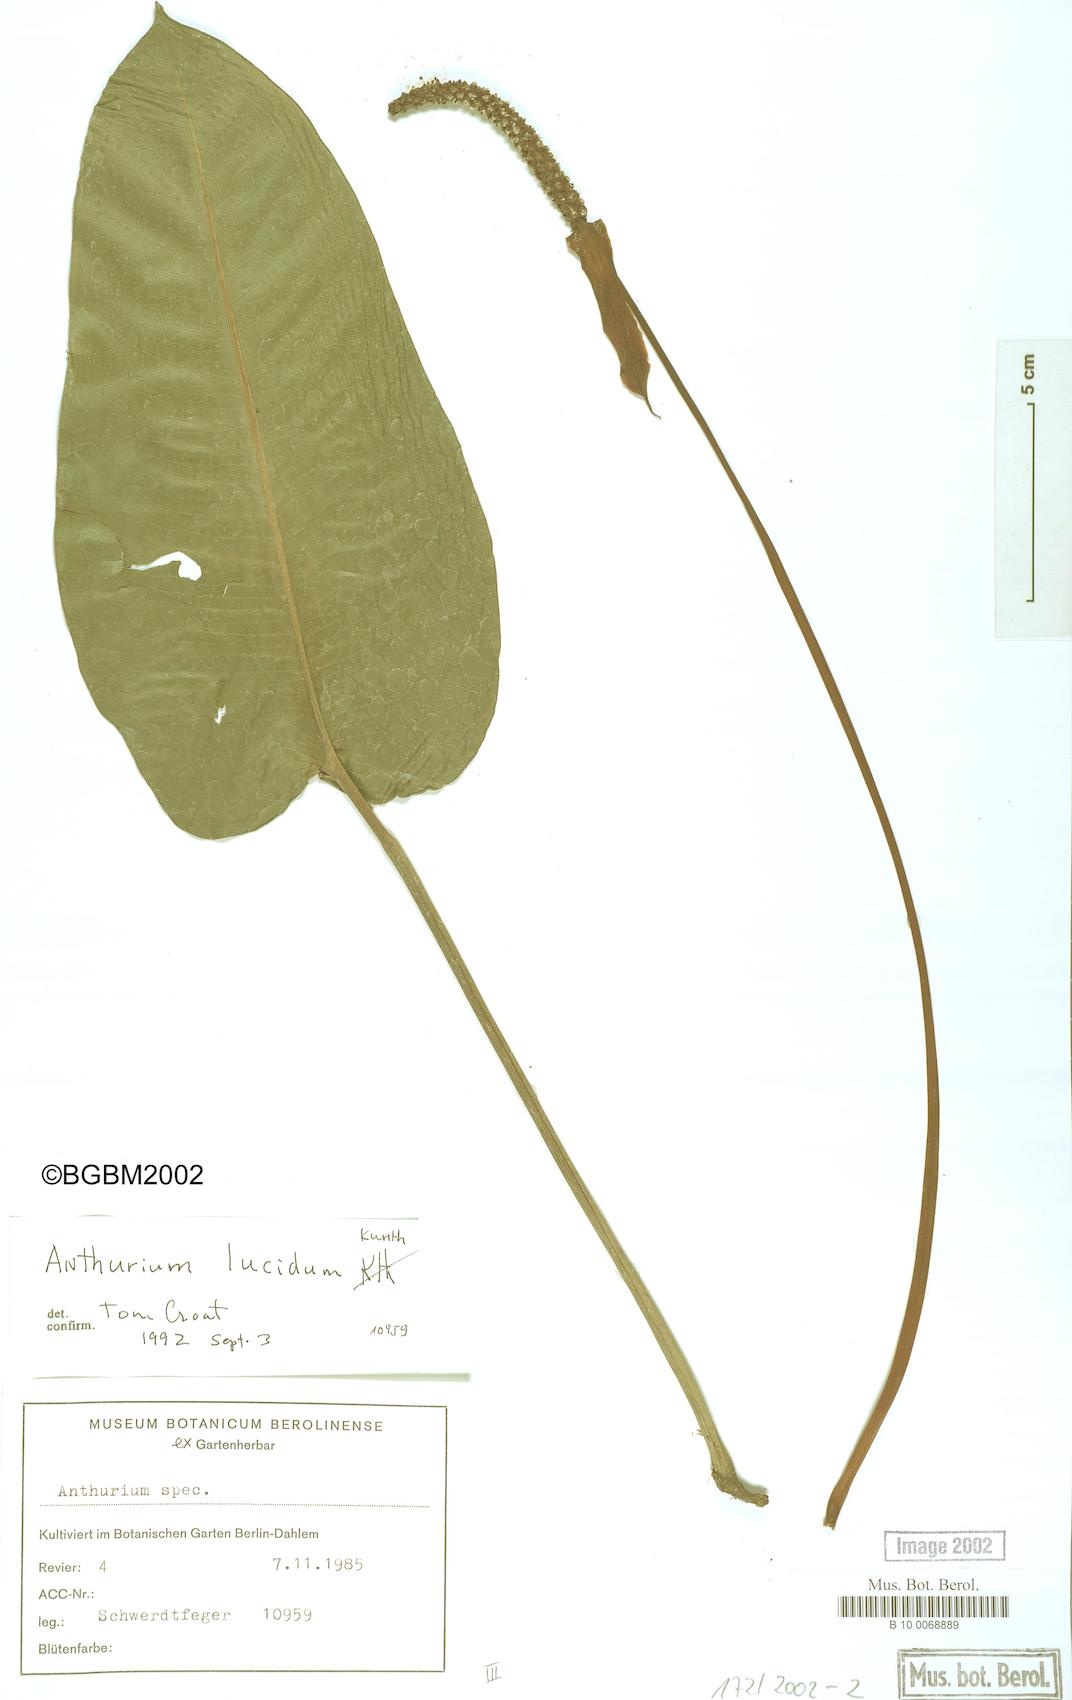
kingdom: Plantae
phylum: Tracheophyta
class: Liliopsida
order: Alismatales
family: Araceae
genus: Anthurium
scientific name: Anthurium lucidum
